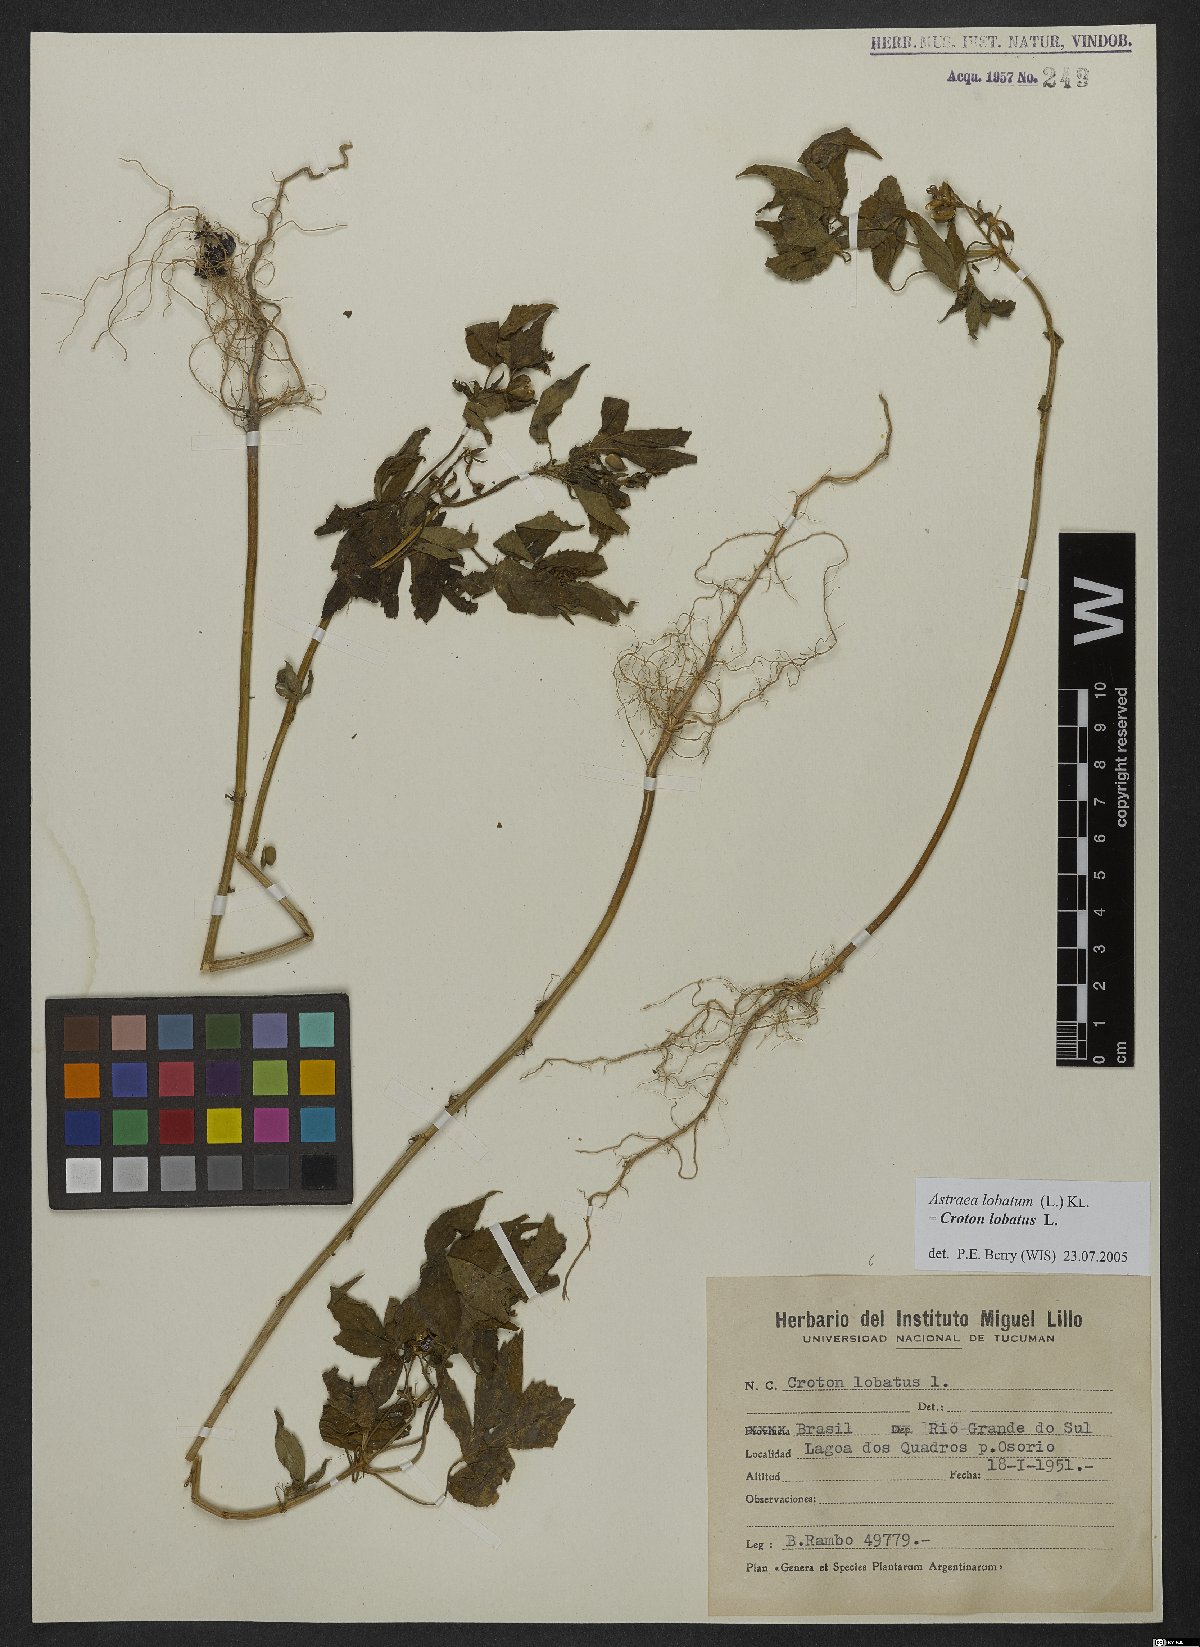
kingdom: Plantae
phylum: Tracheophyta
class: Magnoliopsida
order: Malpighiales
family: Euphorbiaceae
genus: Croton
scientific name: Croton lobatus
